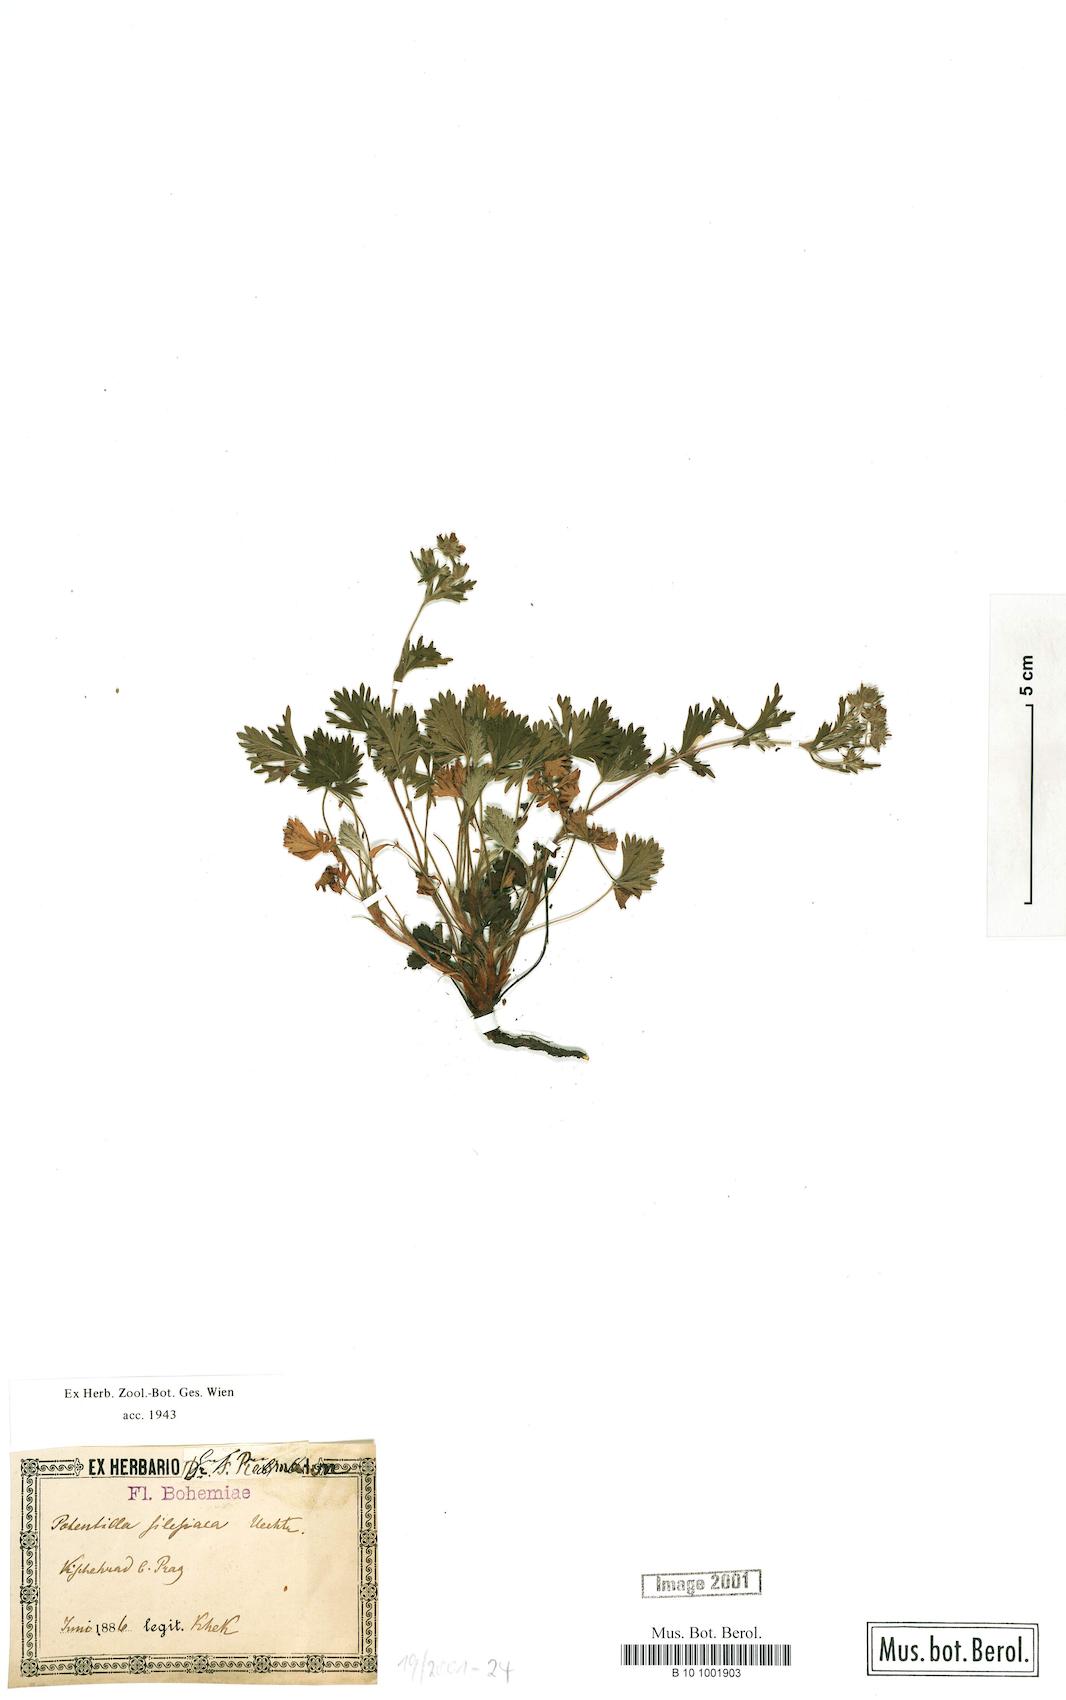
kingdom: Plantae
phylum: Tracheophyta
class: Magnoliopsida
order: Rosales
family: Rosaceae
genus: Potentilla
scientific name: Potentilla lindackeri
